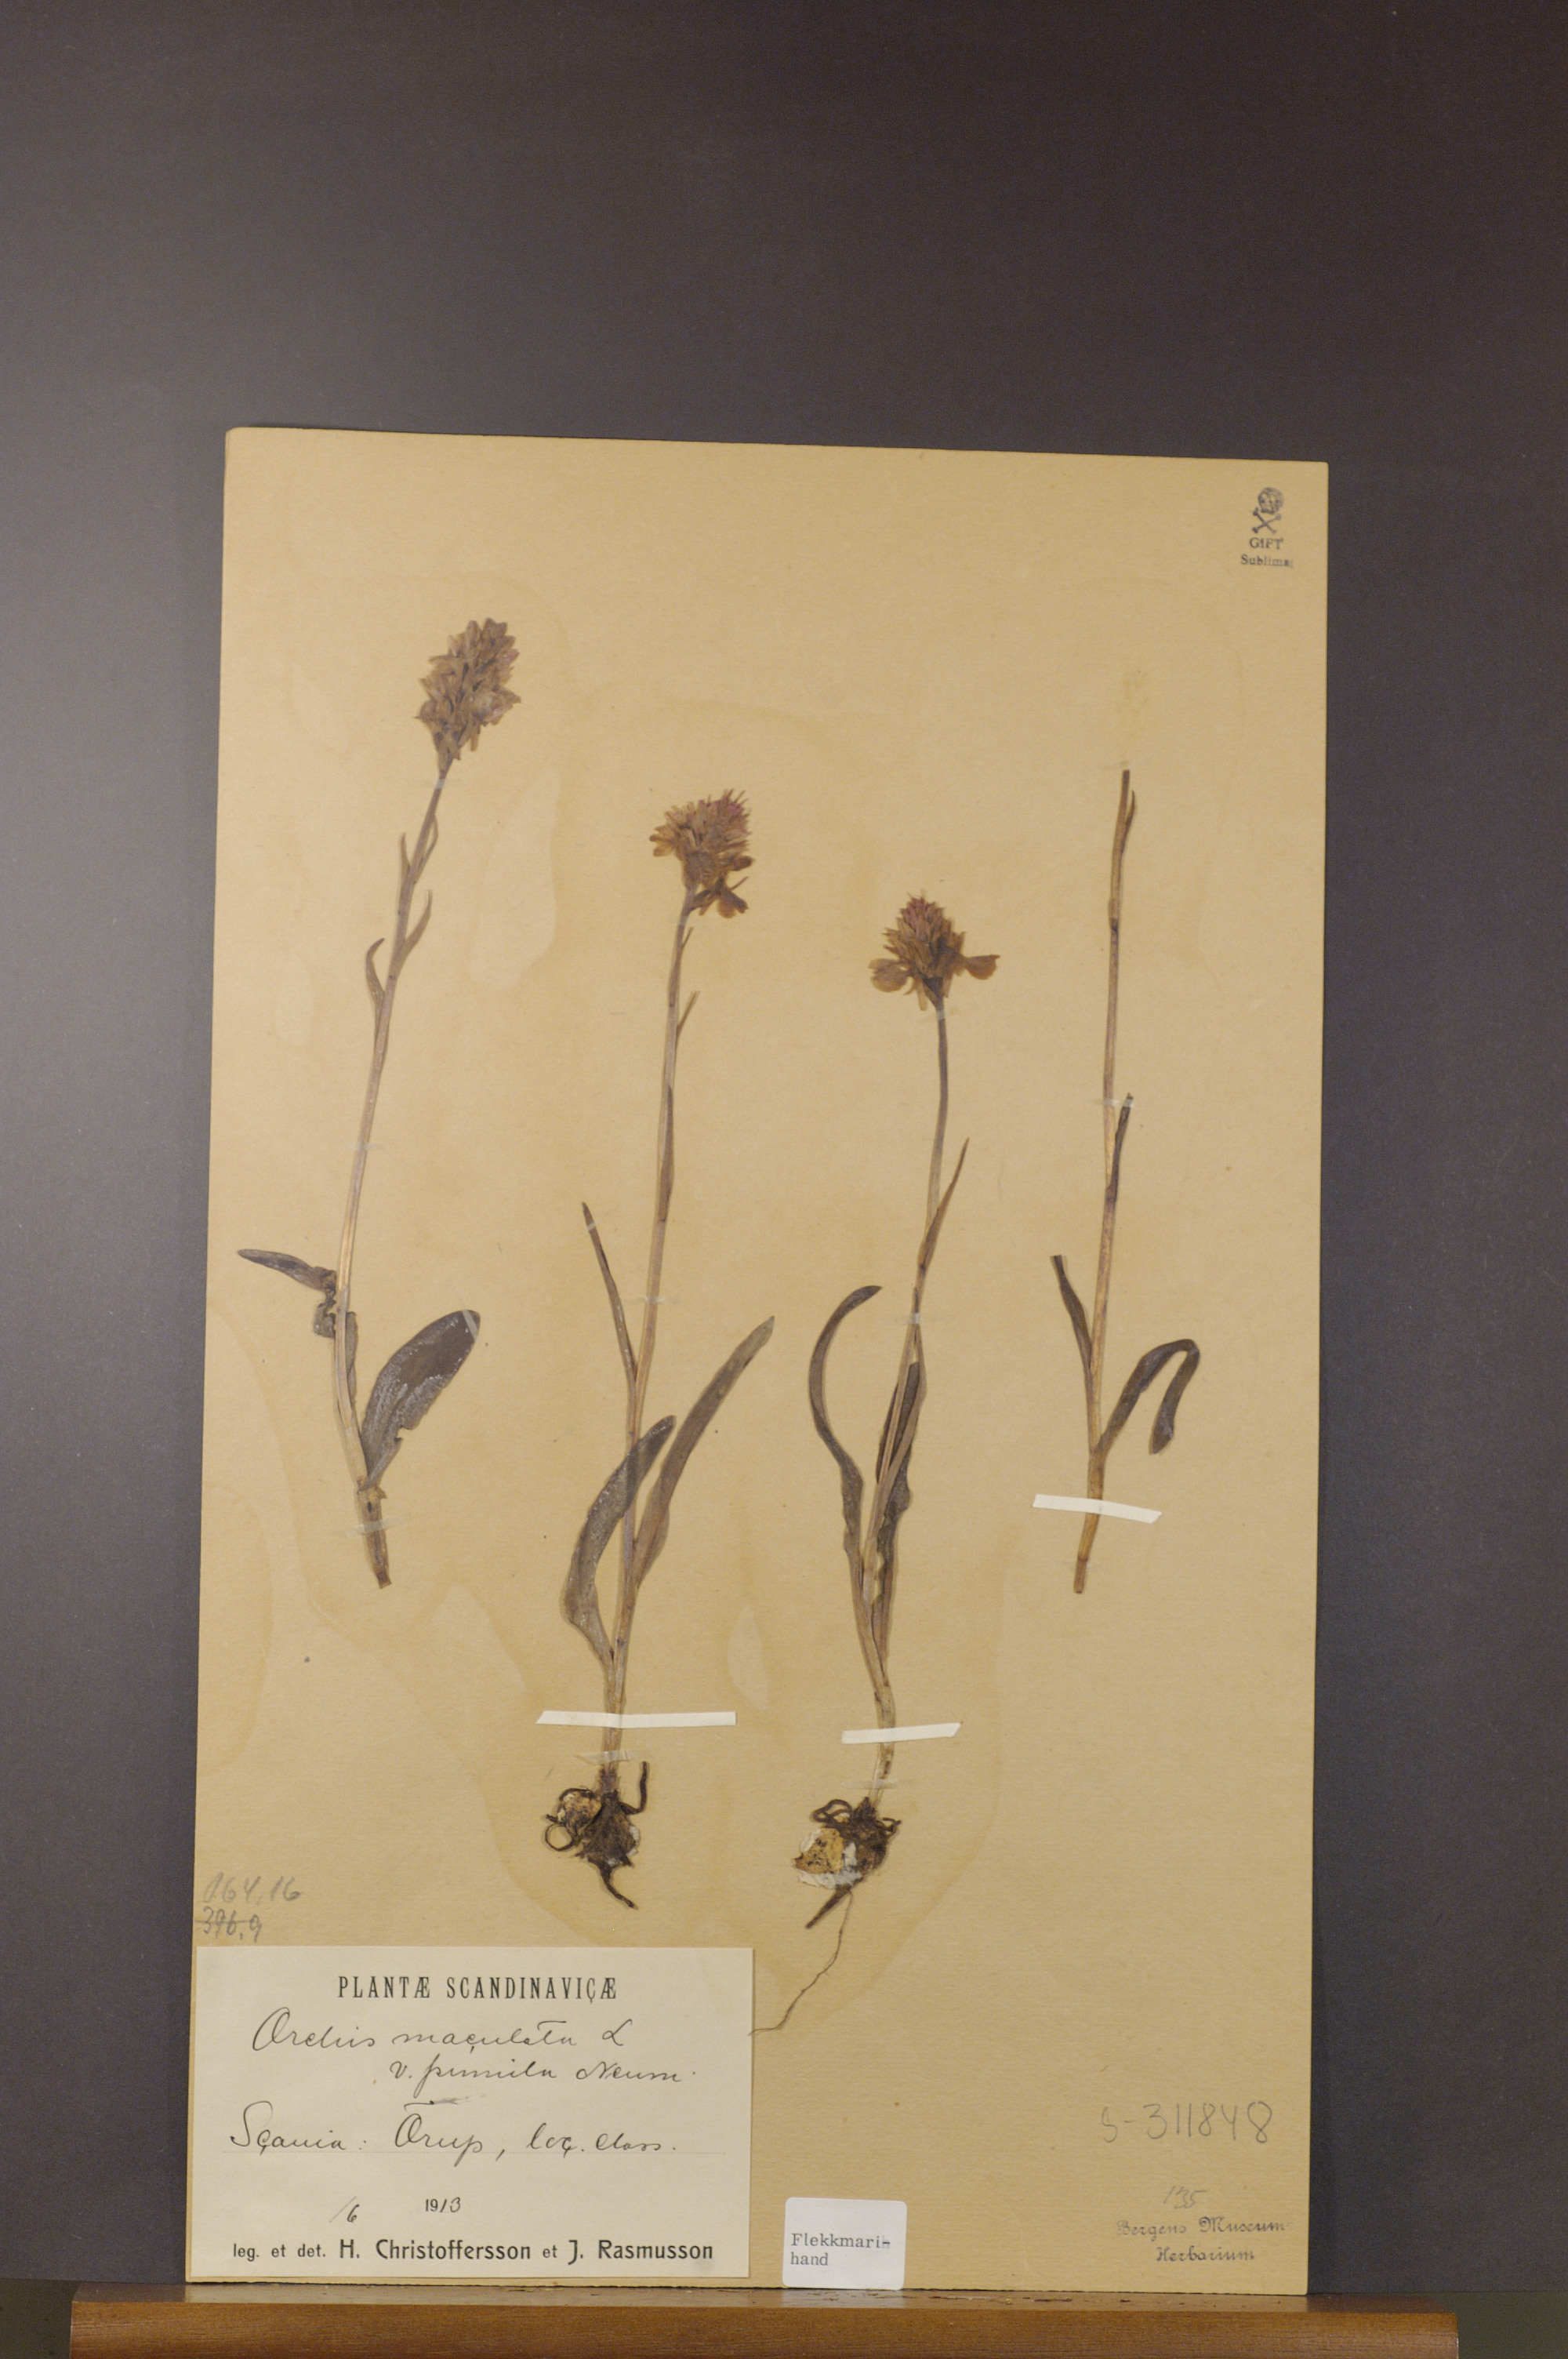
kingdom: Plantae
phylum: Tracheophyta
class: Liliopsida
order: Asparagales
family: Orchidaceae
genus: Dactylorhiza
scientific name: Dactylorhiza maculata
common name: Heath spotted-orchid
